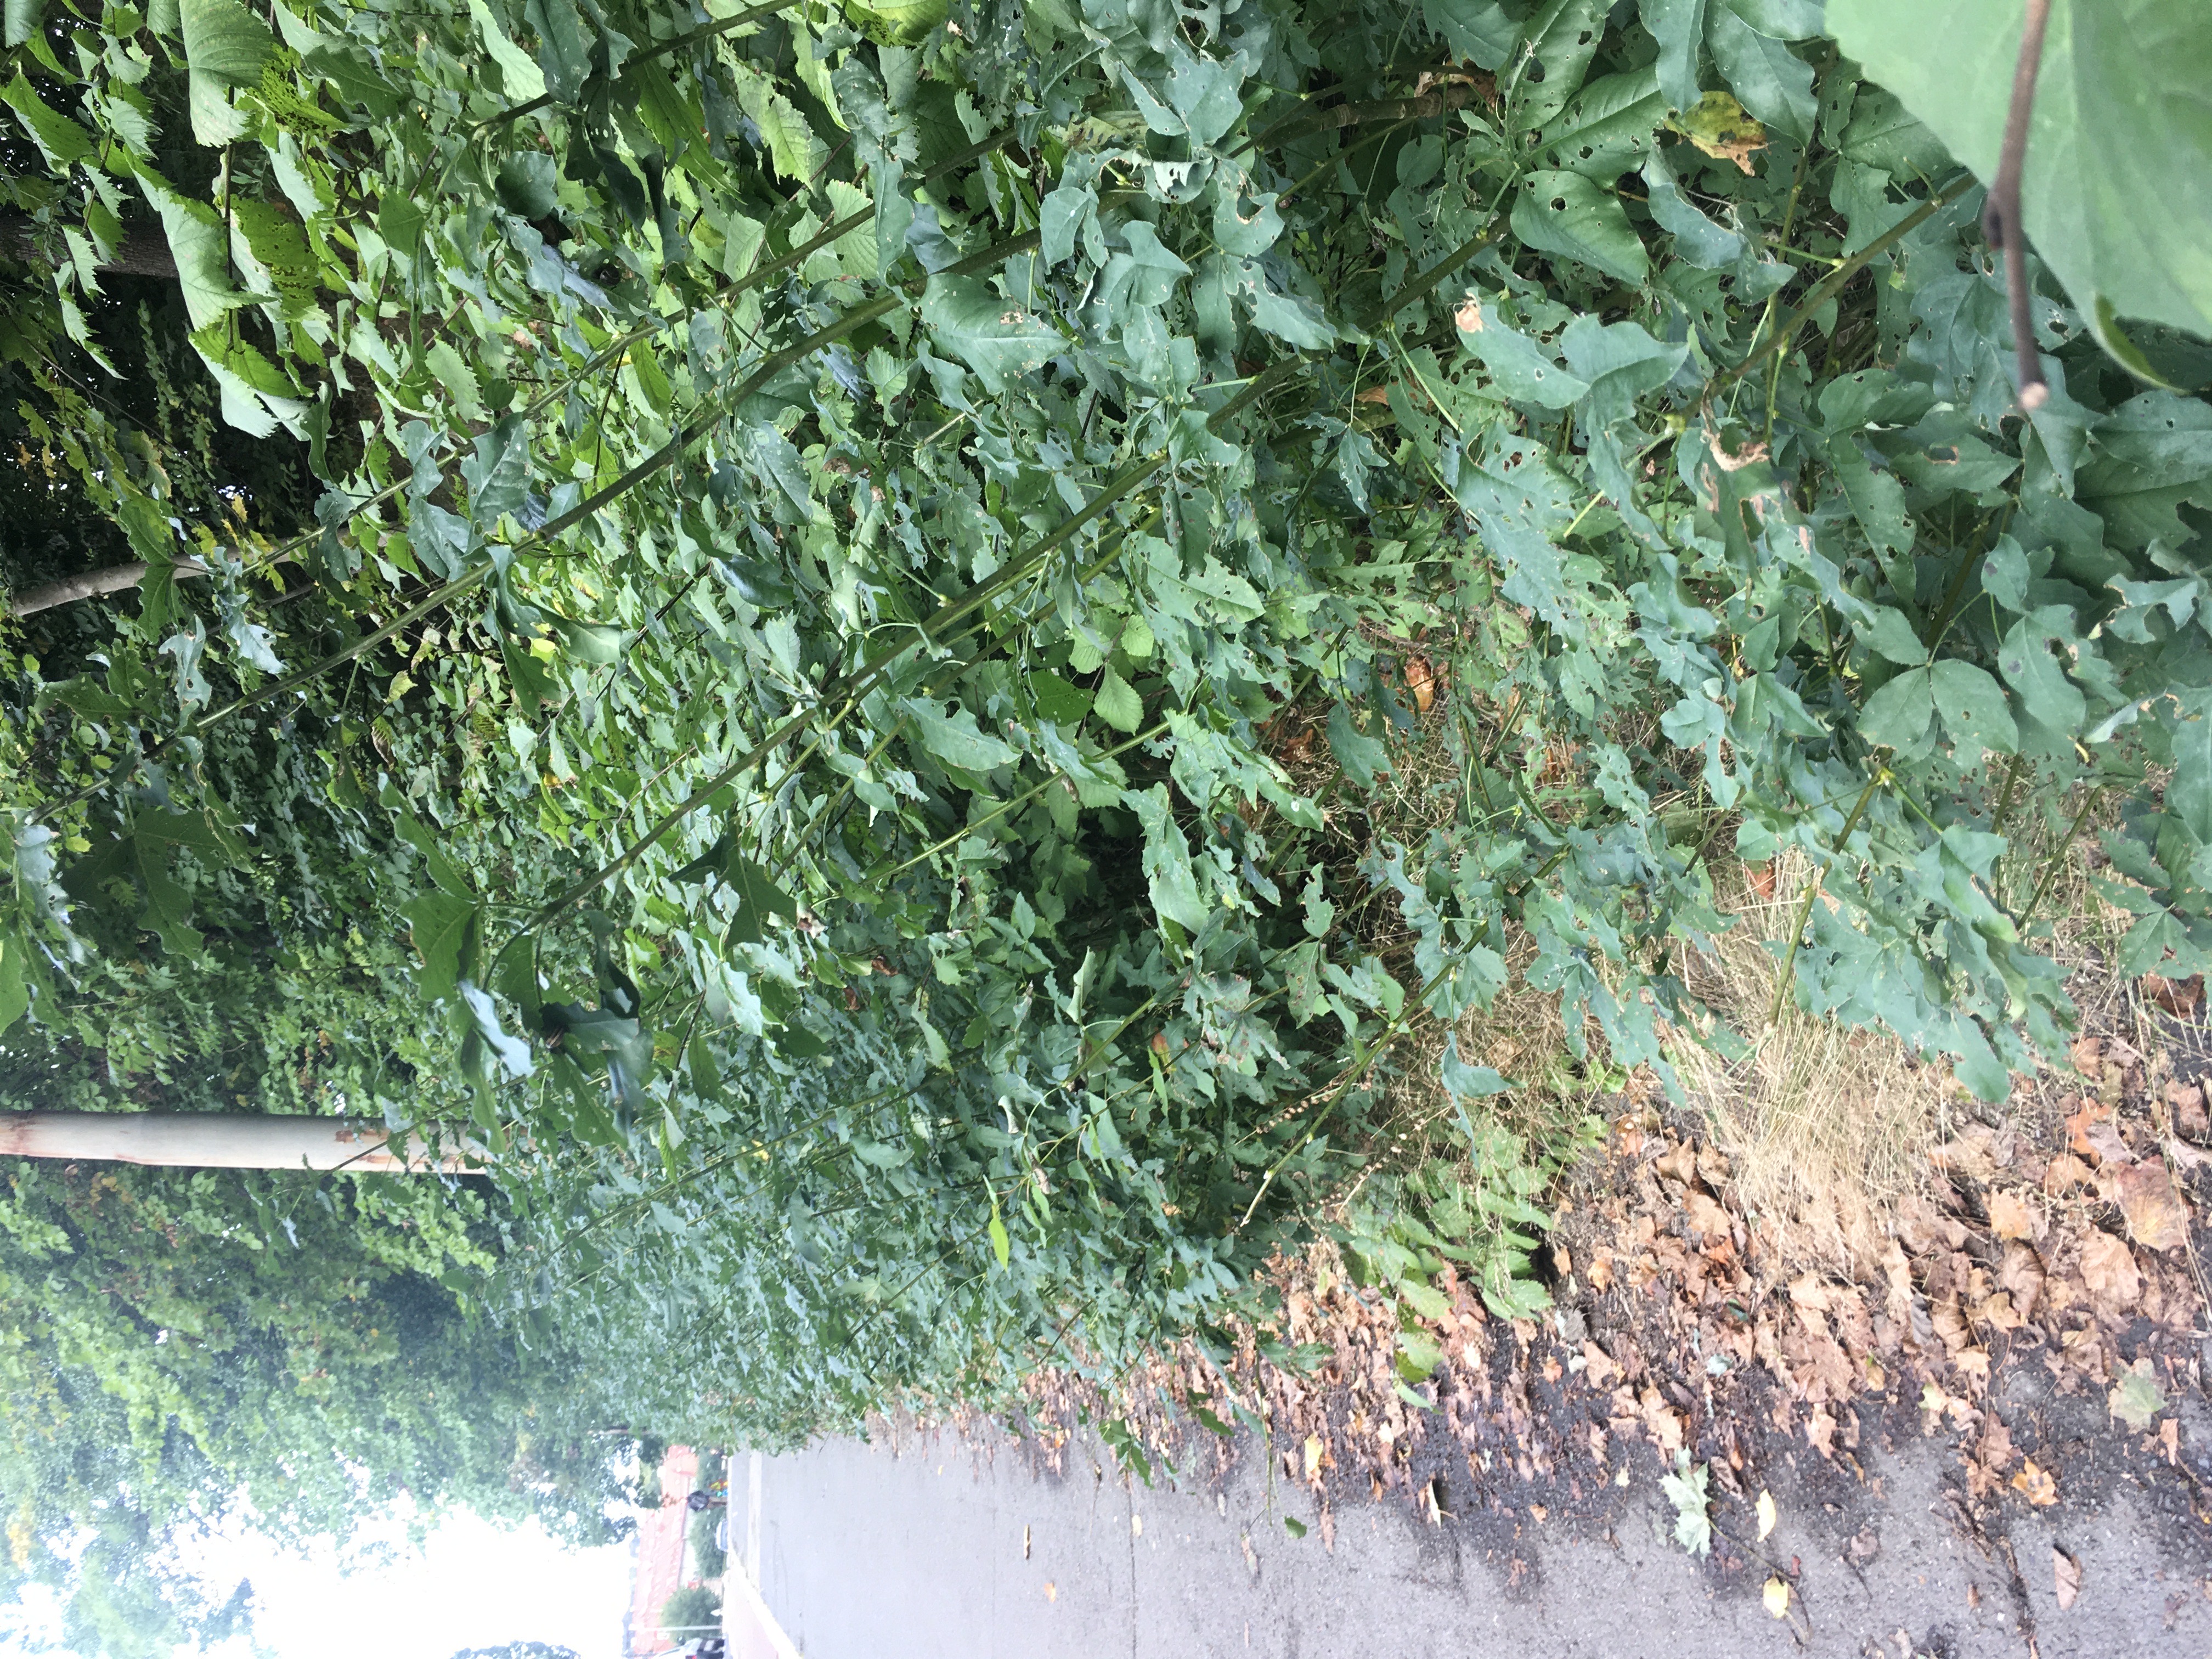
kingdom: Plantae
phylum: Tracheophyta
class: Magnoliopsida
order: Fabales
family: Fabaceae
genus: Laburnum
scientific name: Laburnum alpinum
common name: alpegullregn
